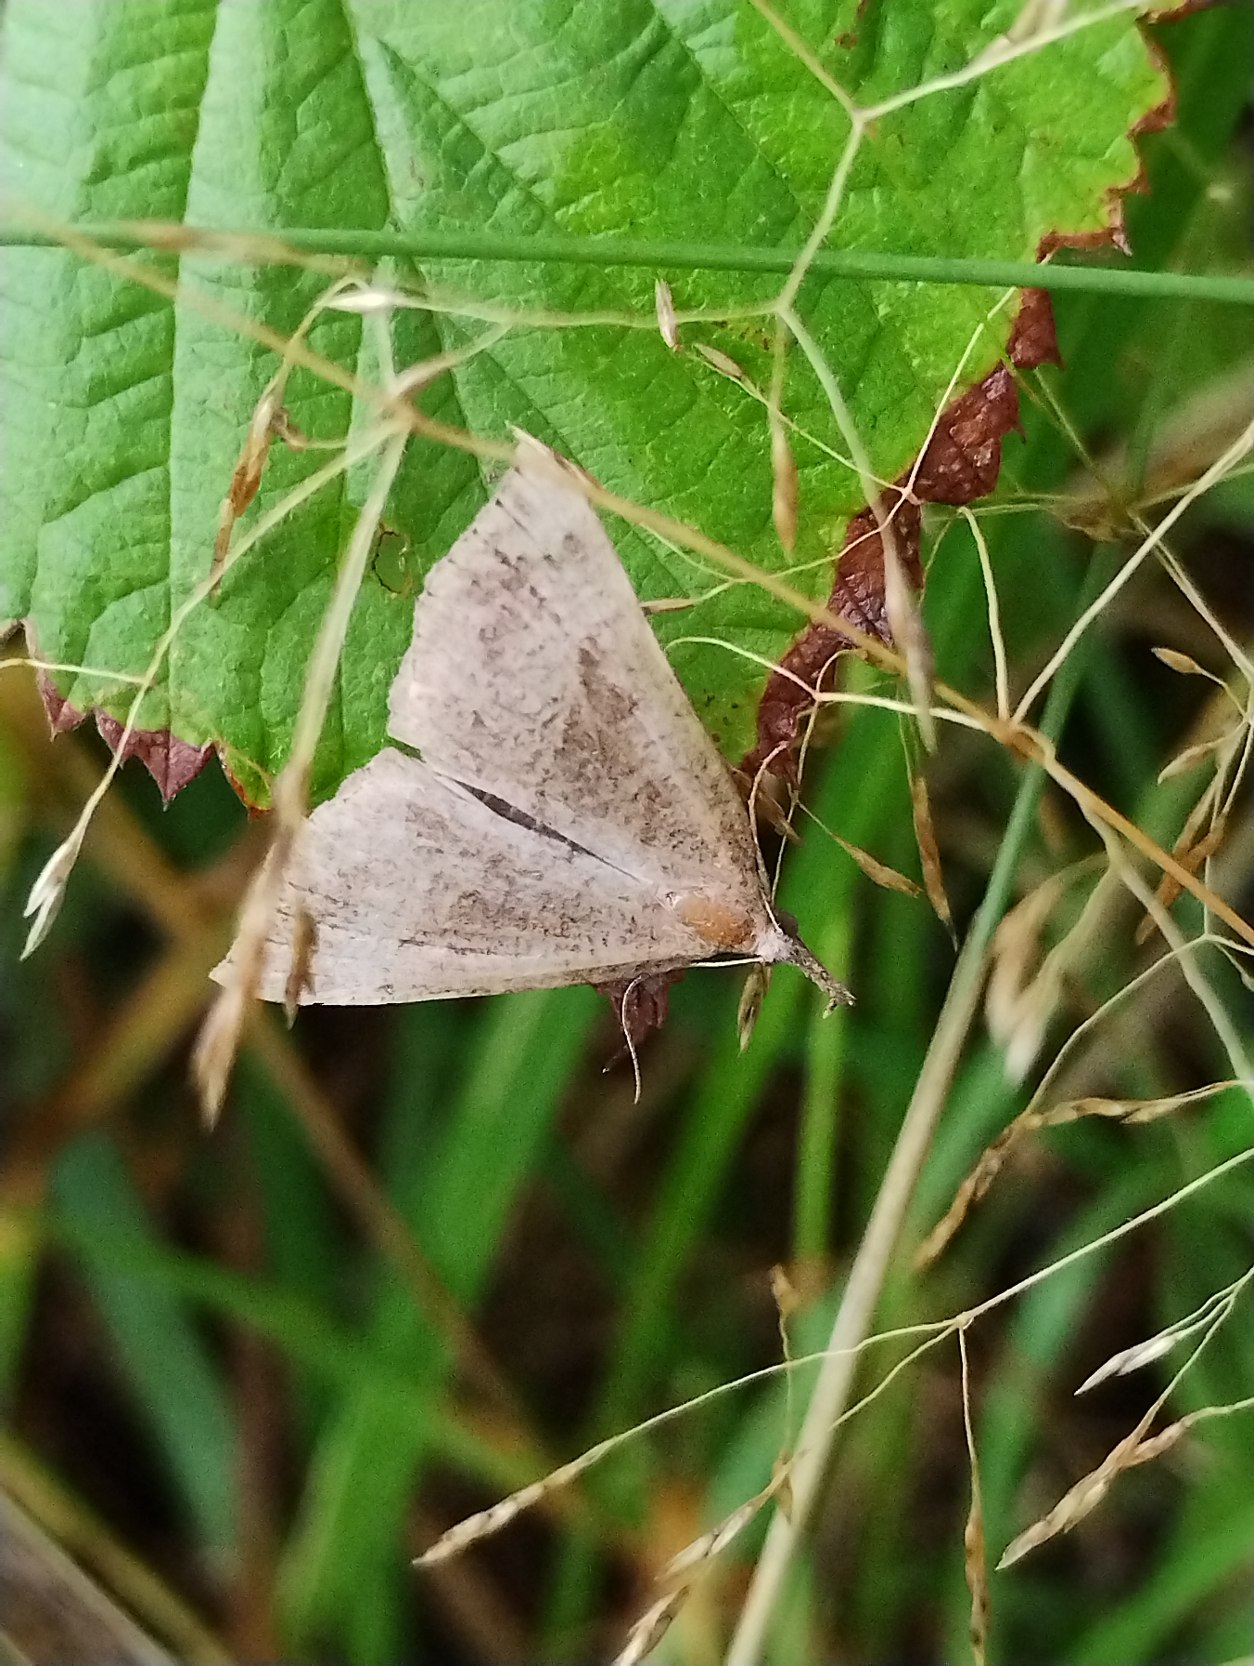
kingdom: Animalia
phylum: Arthropoda
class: Insecta
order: Lepidoptera
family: Erebidae
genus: Hypena
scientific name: Hypena proboscidalis
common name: Snudeugle
